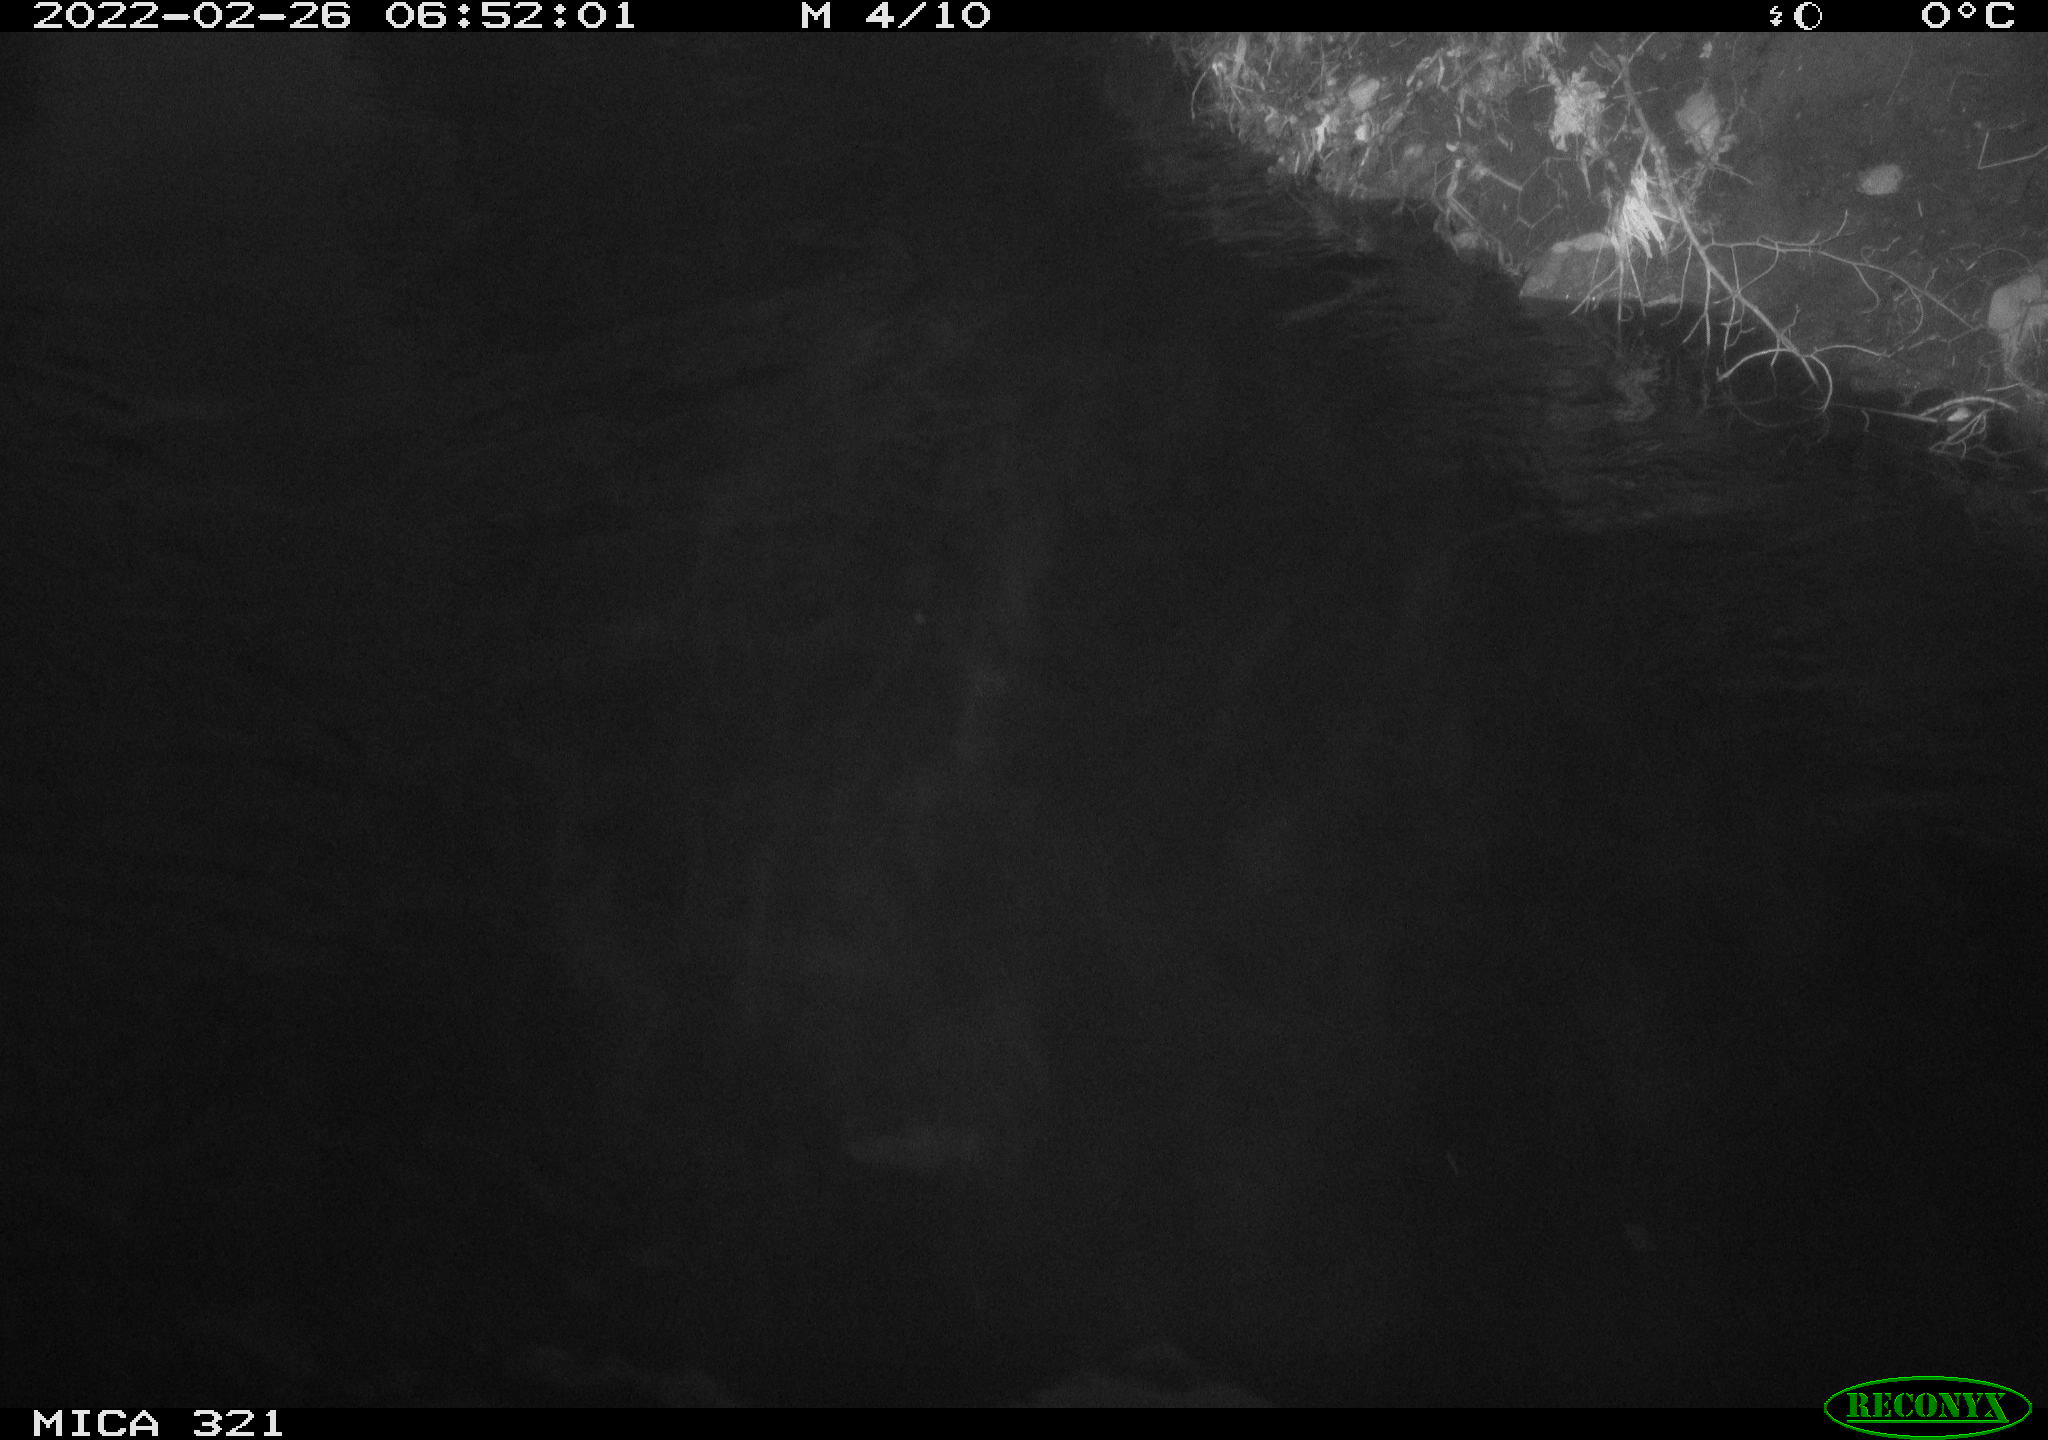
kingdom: Animalia
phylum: Chordata
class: Aves
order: Anseriformes
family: Anatidae
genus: Anas
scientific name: Anas platyrhynchos
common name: Mallard
